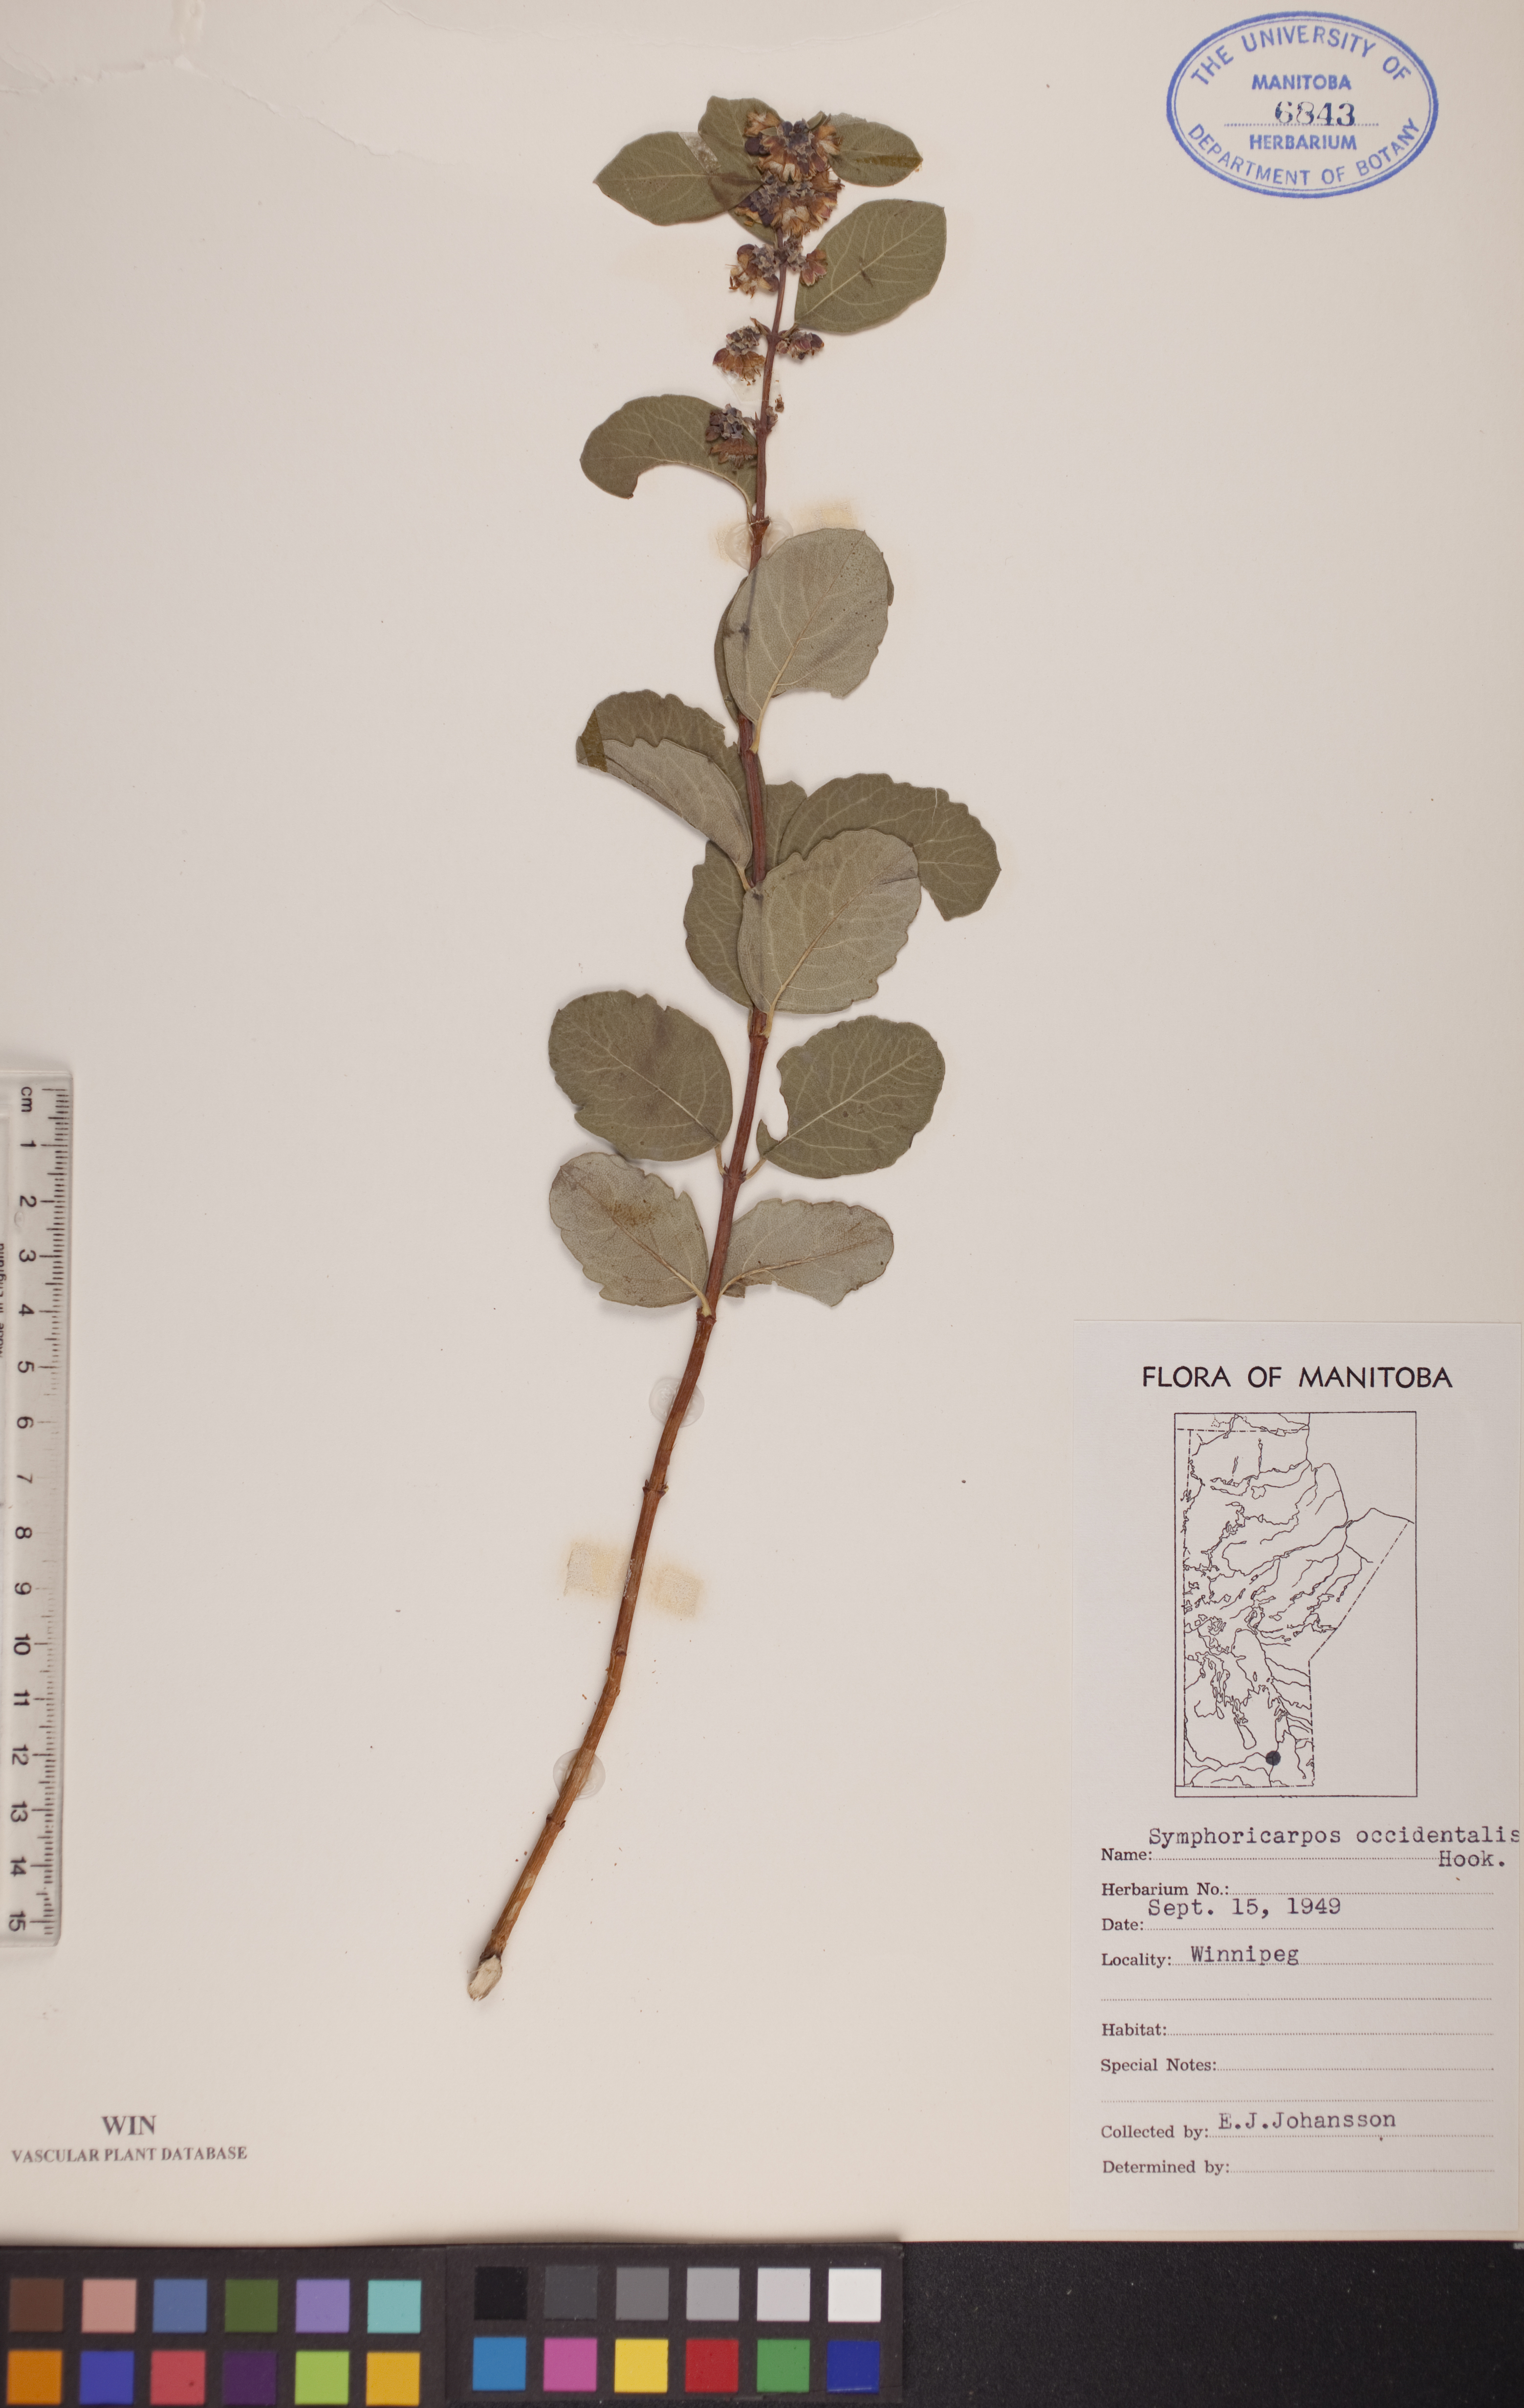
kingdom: Plantae
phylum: Tracheophyta
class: Magnoliopsida
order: Dipsacales
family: Caprifoliaceae
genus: Symphoricarpos
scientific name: Symphoricarpos occidentalis
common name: Wolfberry
